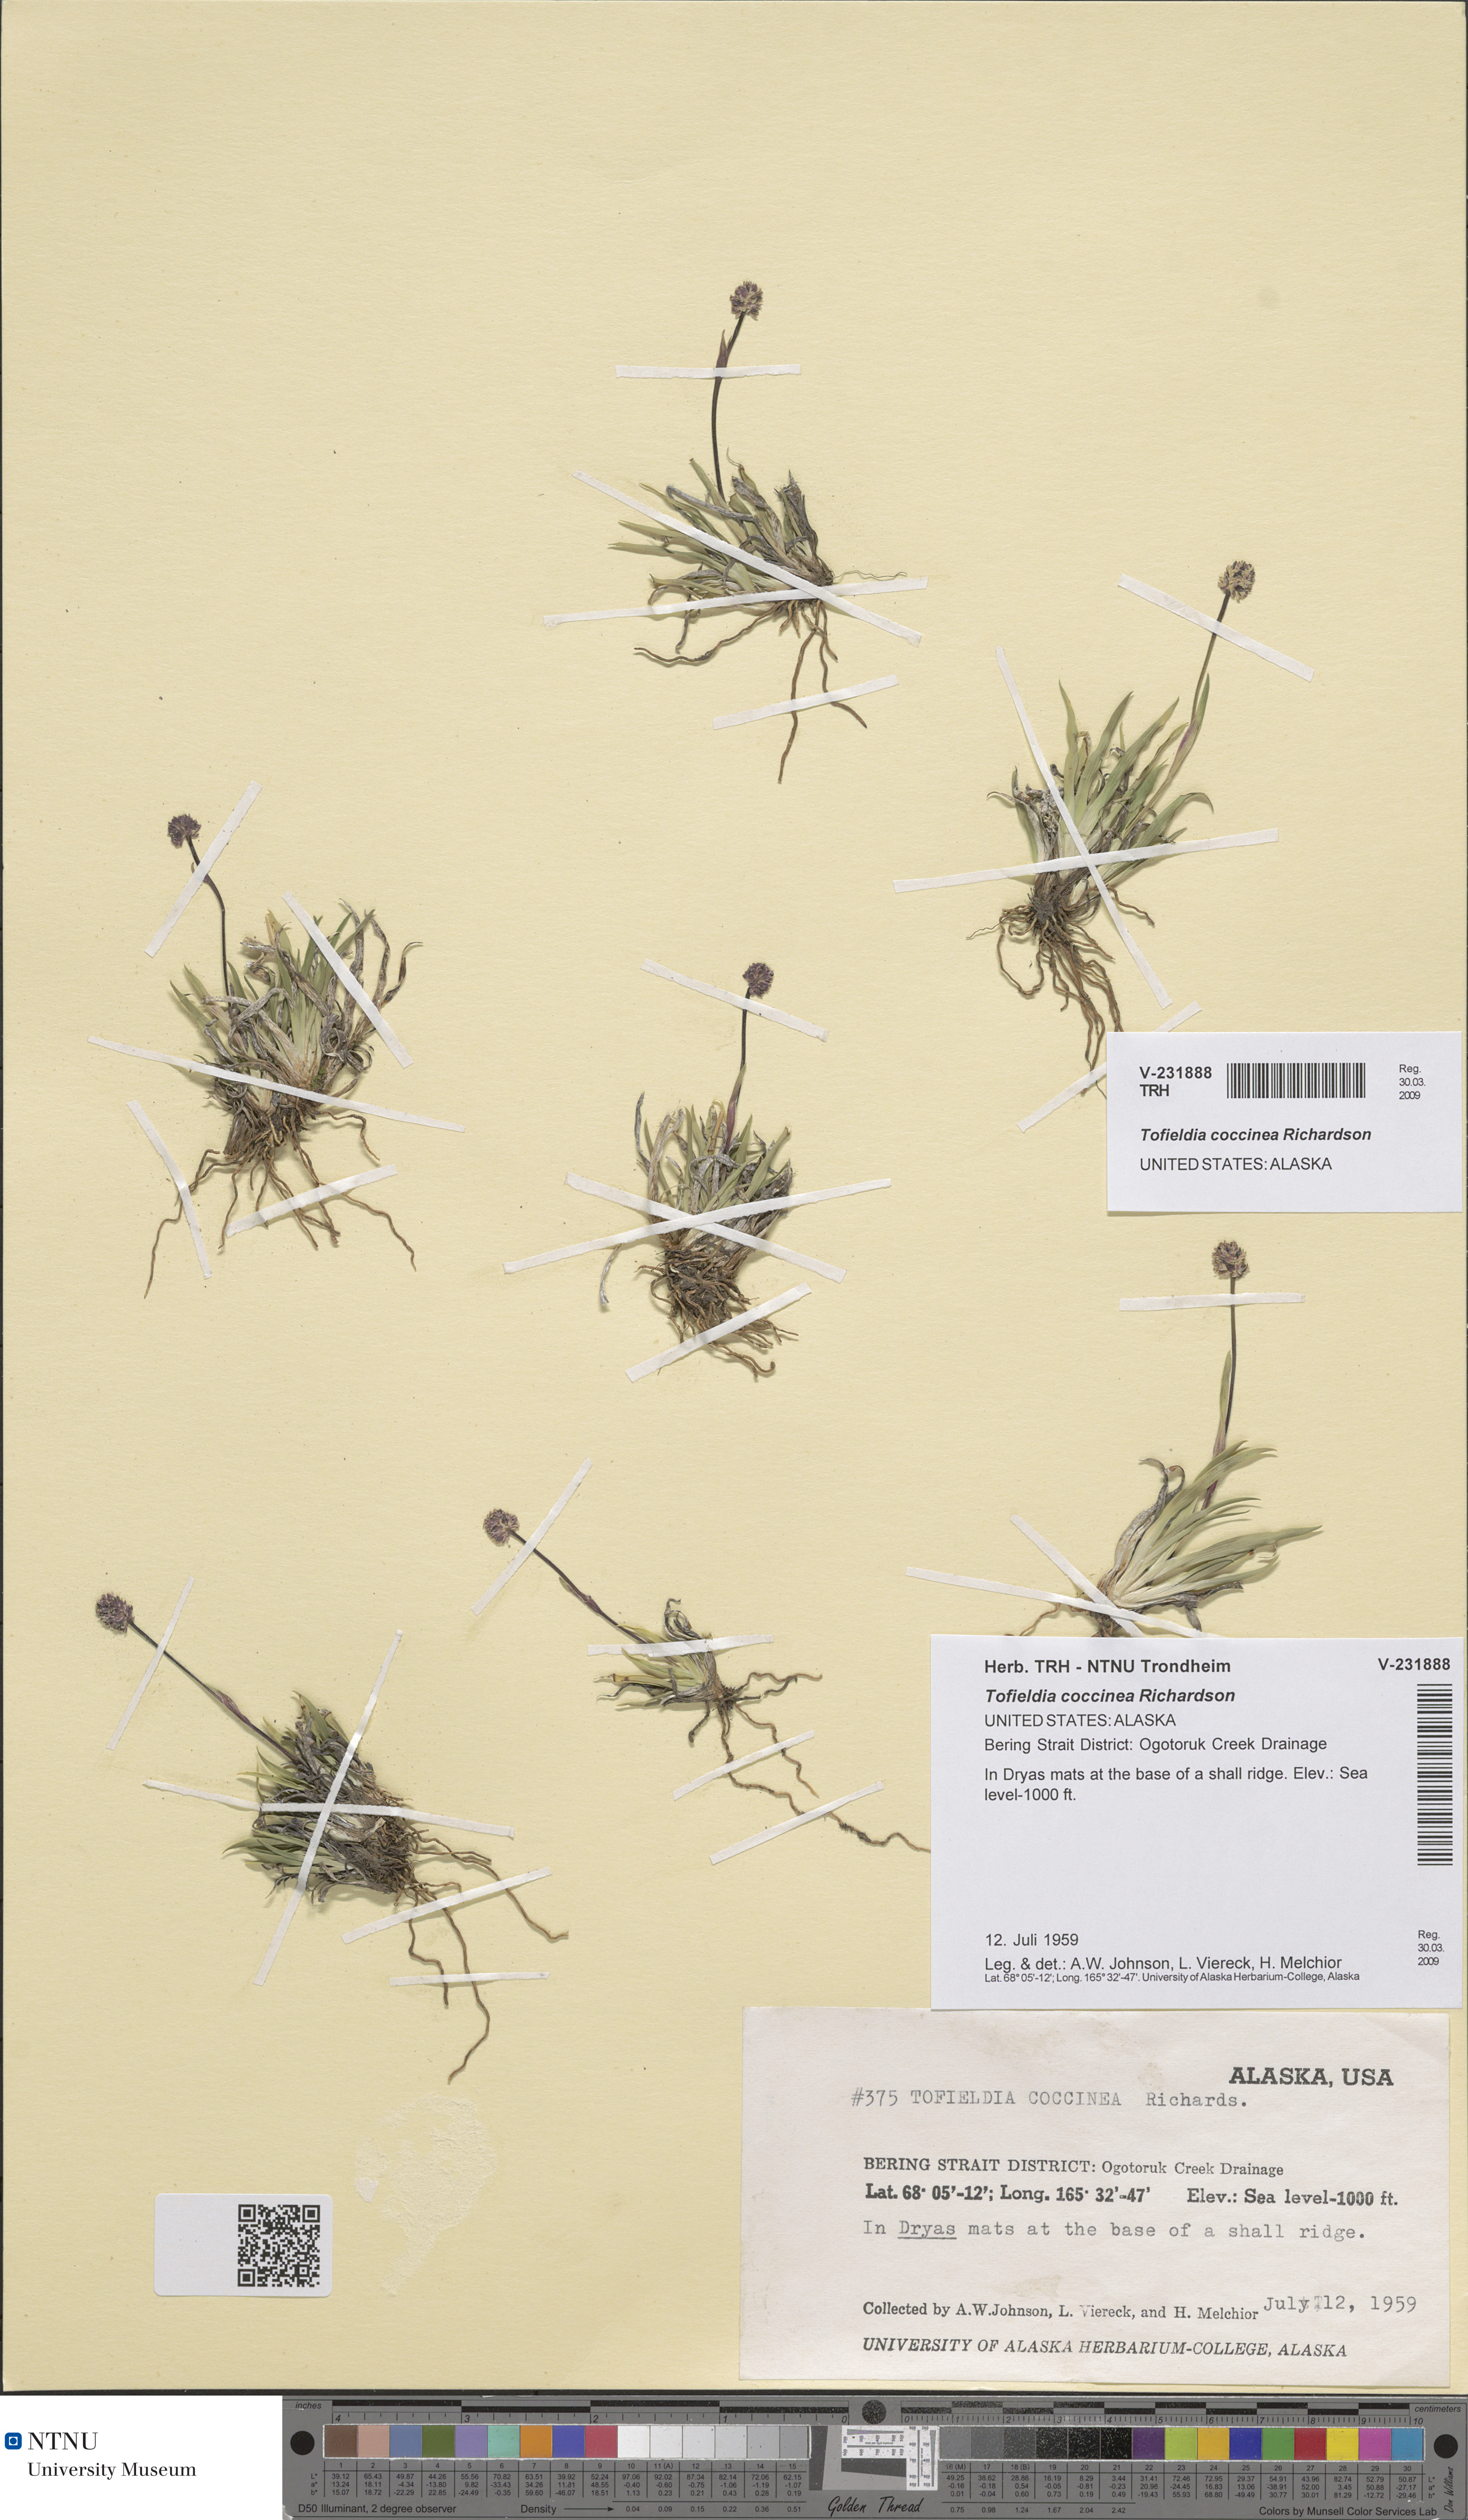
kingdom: Plantae
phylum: Tracheophyta
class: Liliopsida
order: Alismatales
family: Tofieldiaceae
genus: Tofieldia
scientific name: Tofieldia coccinea
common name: Northern false asphodel
